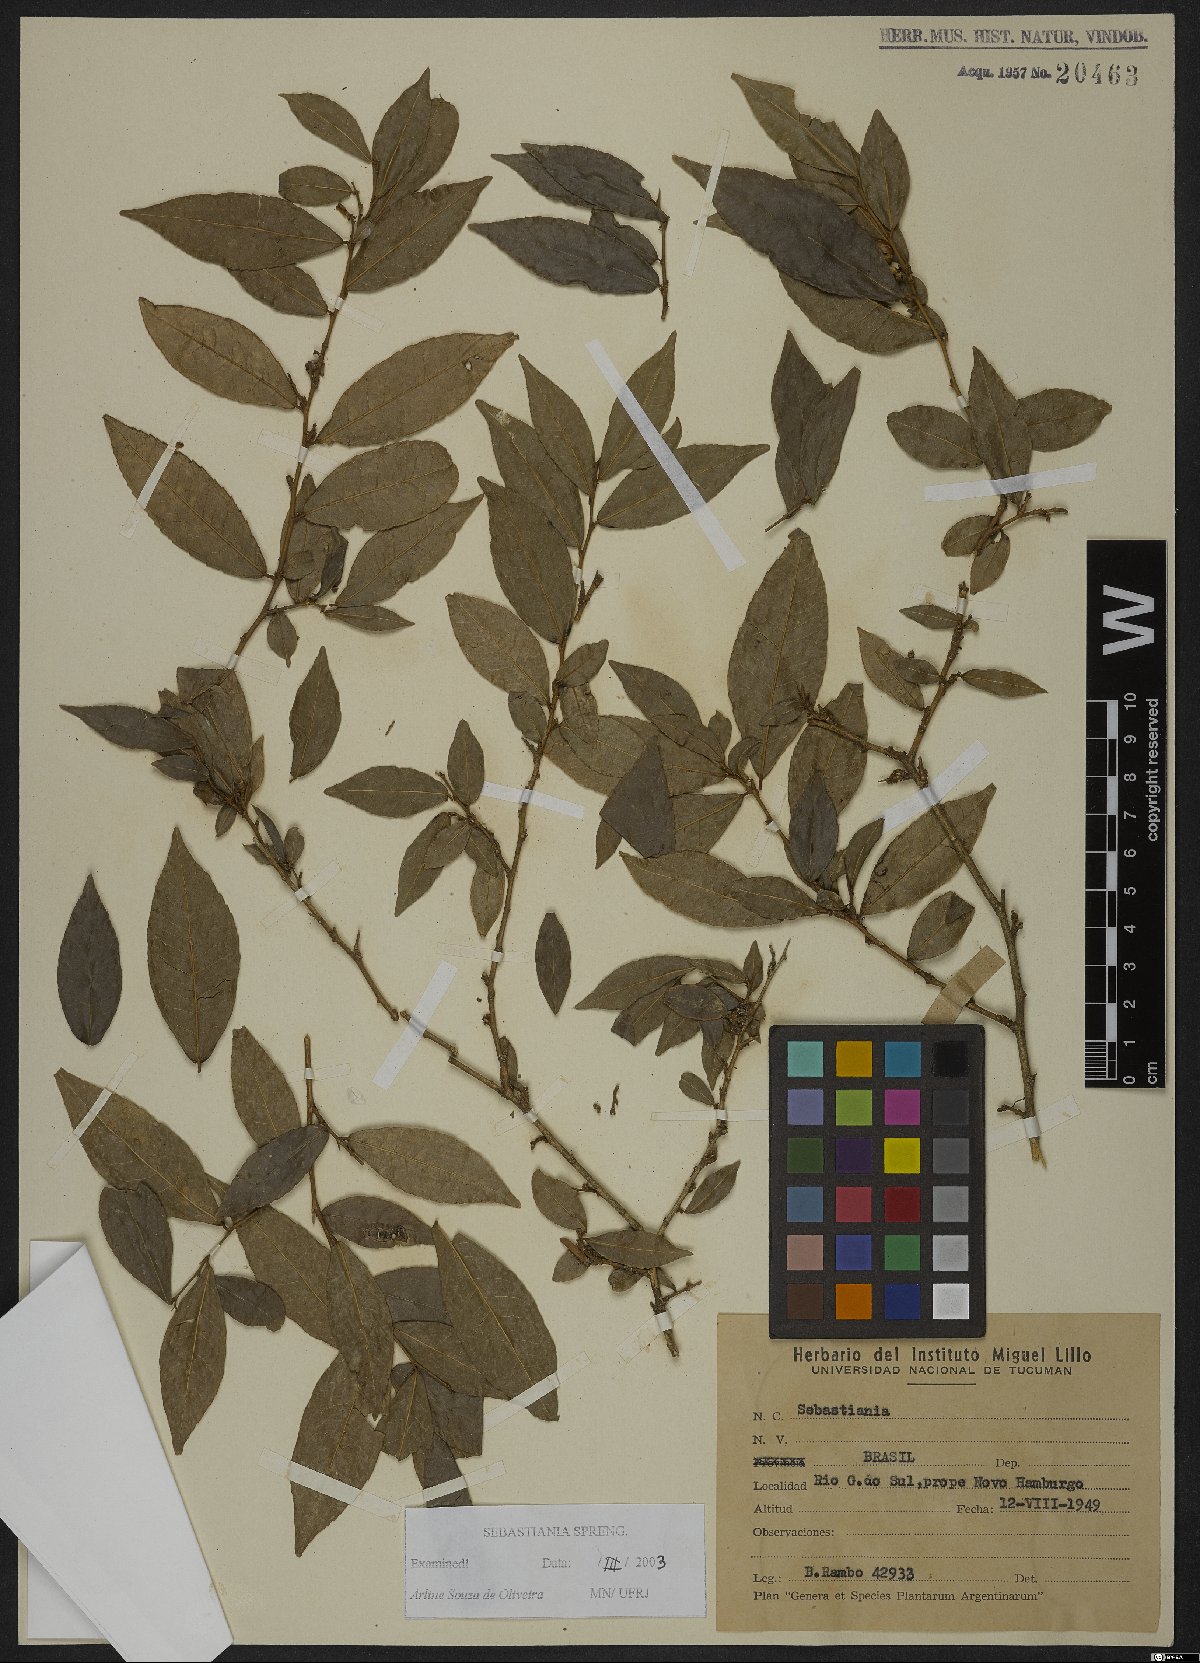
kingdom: Plantae
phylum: Tracheophyta
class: Magnoliopsida
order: Malpighiales
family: Euphorbiaceae
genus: Sebastiania
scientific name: Sebastiania
